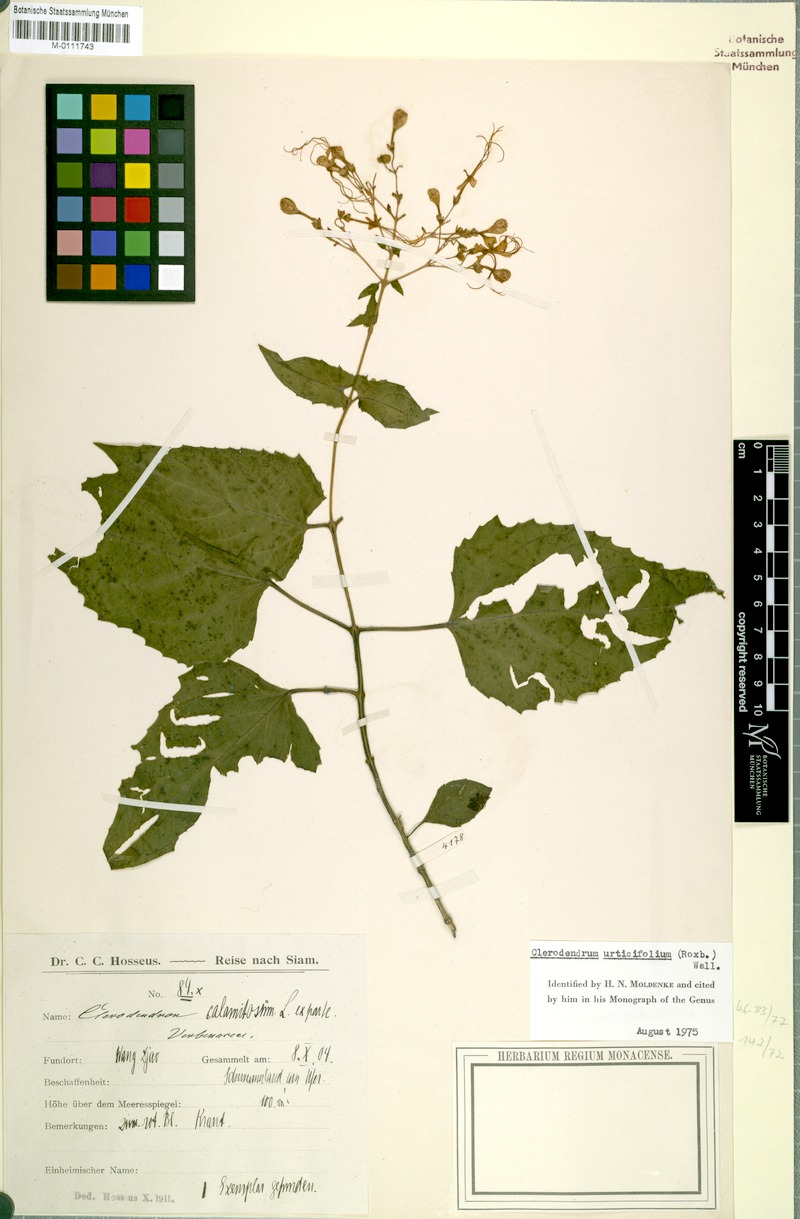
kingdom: Plantae
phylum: Tracheophyta
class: Magnoliopsida
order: Lamiales
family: Lamiaceae
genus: Clerodendrum
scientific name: Clerodendrum urticifolium
